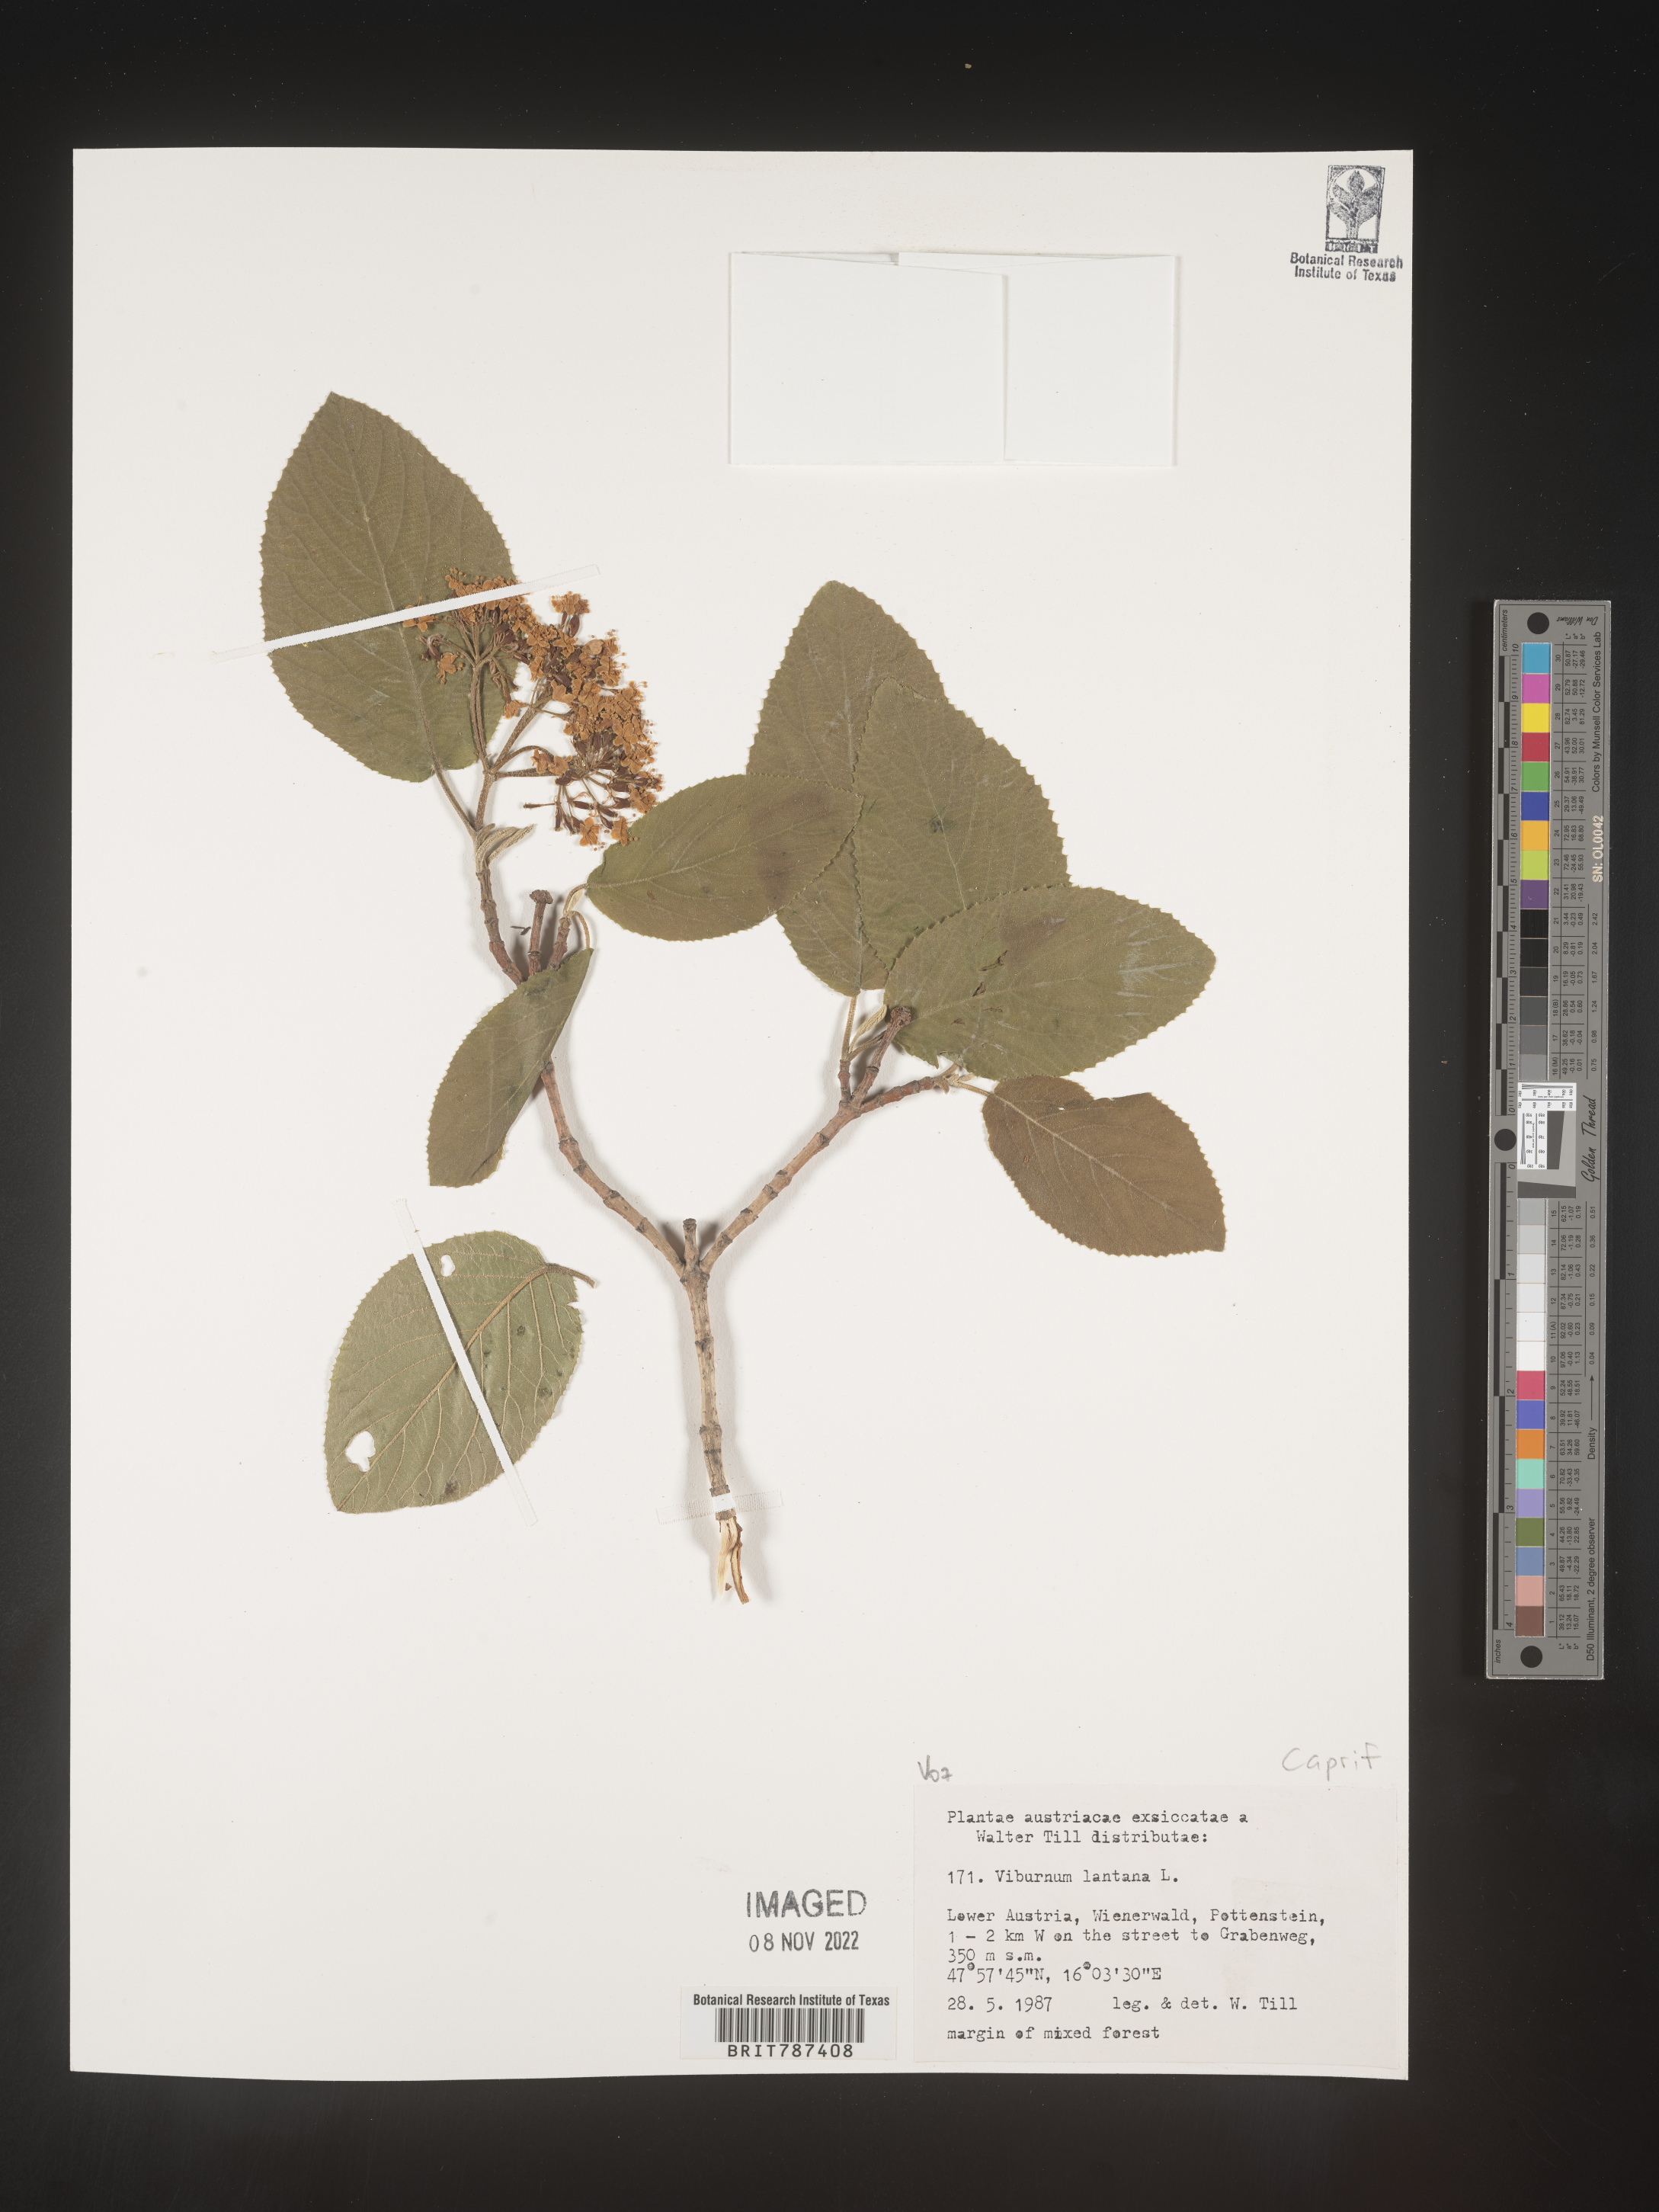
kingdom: Plantae
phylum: Tracheophyta
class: Magnoliopsida
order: Dipsacales
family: Viburnaceae
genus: Viburnum
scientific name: Viburnum
